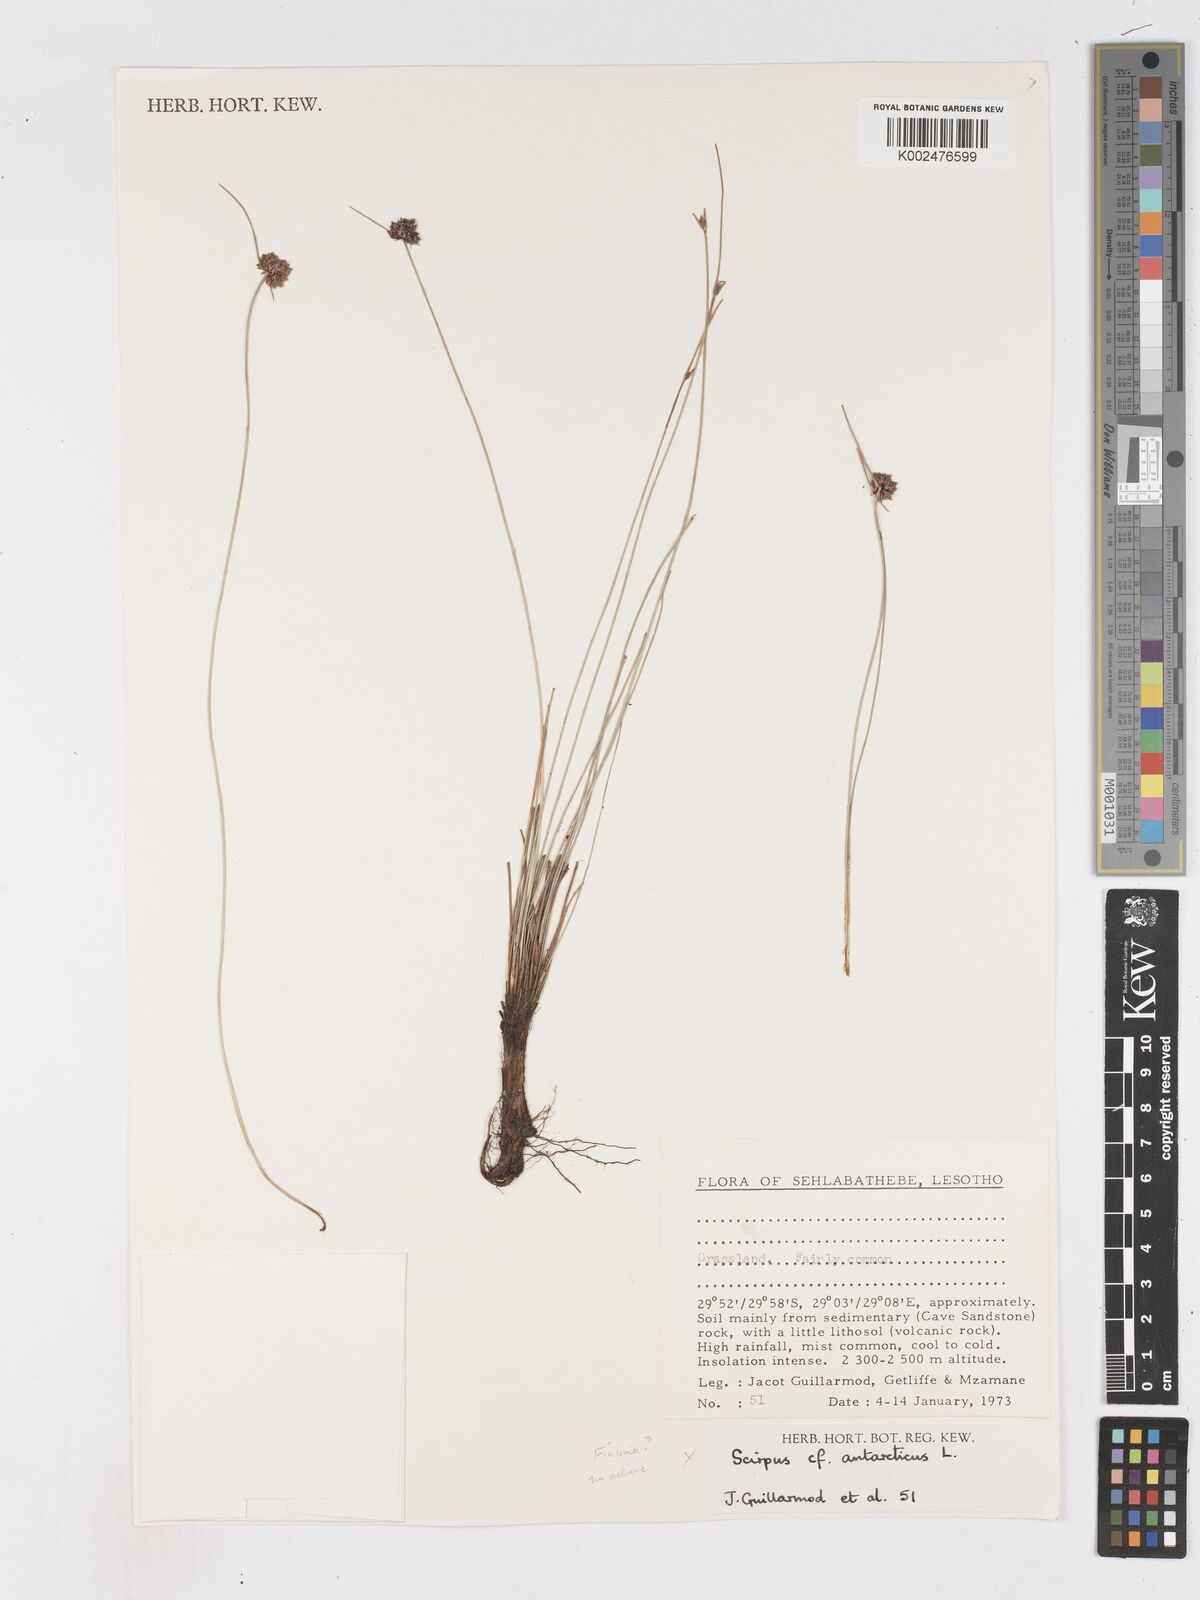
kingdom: Plantae
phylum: Tracheophyta
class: Liliopsida
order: Poales
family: Cyperaceae
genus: Ficinia
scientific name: Ficinia
